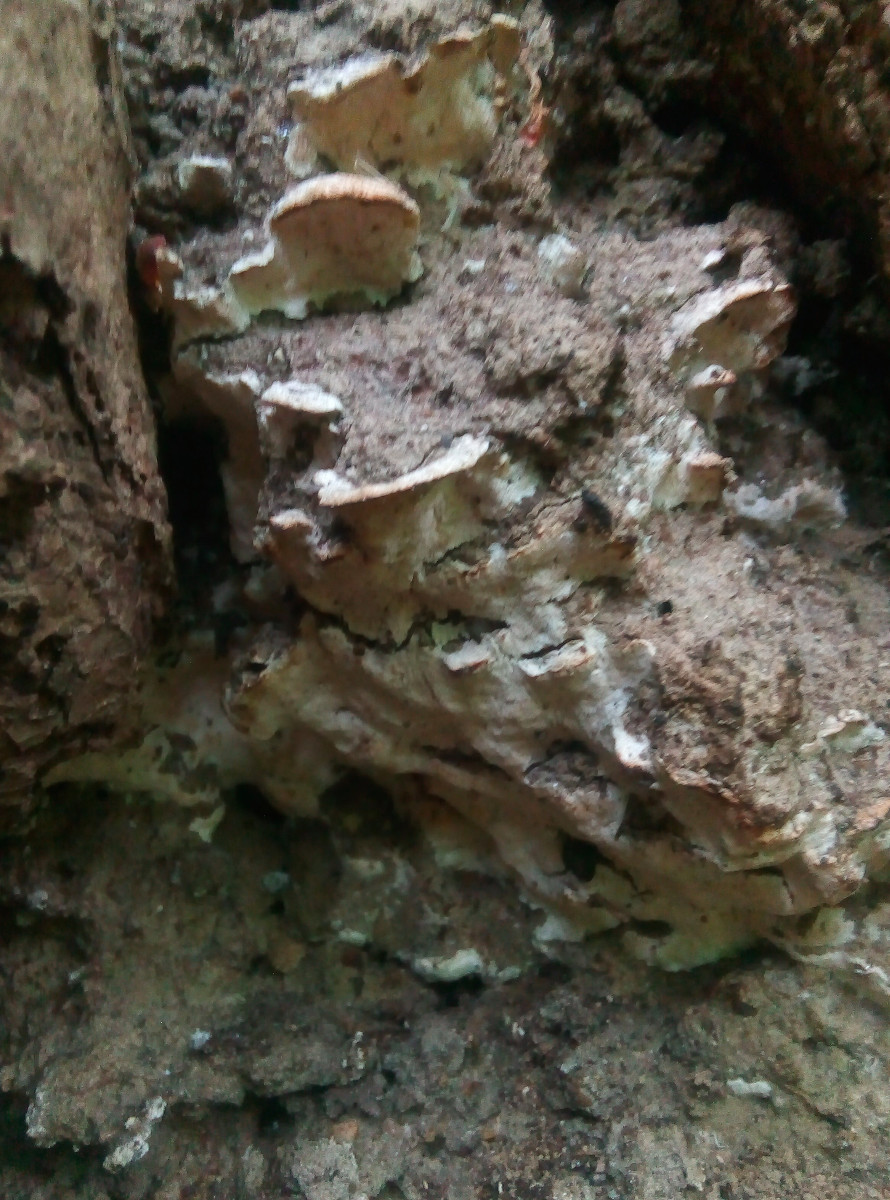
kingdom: Fungi
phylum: Basidiomycota
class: Agaricomycetes
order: Hymenochaetales
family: Oxyporaceae
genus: Oxyporus
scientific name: Oxyporus populinus
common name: sammenvokset trylleporesvamp
